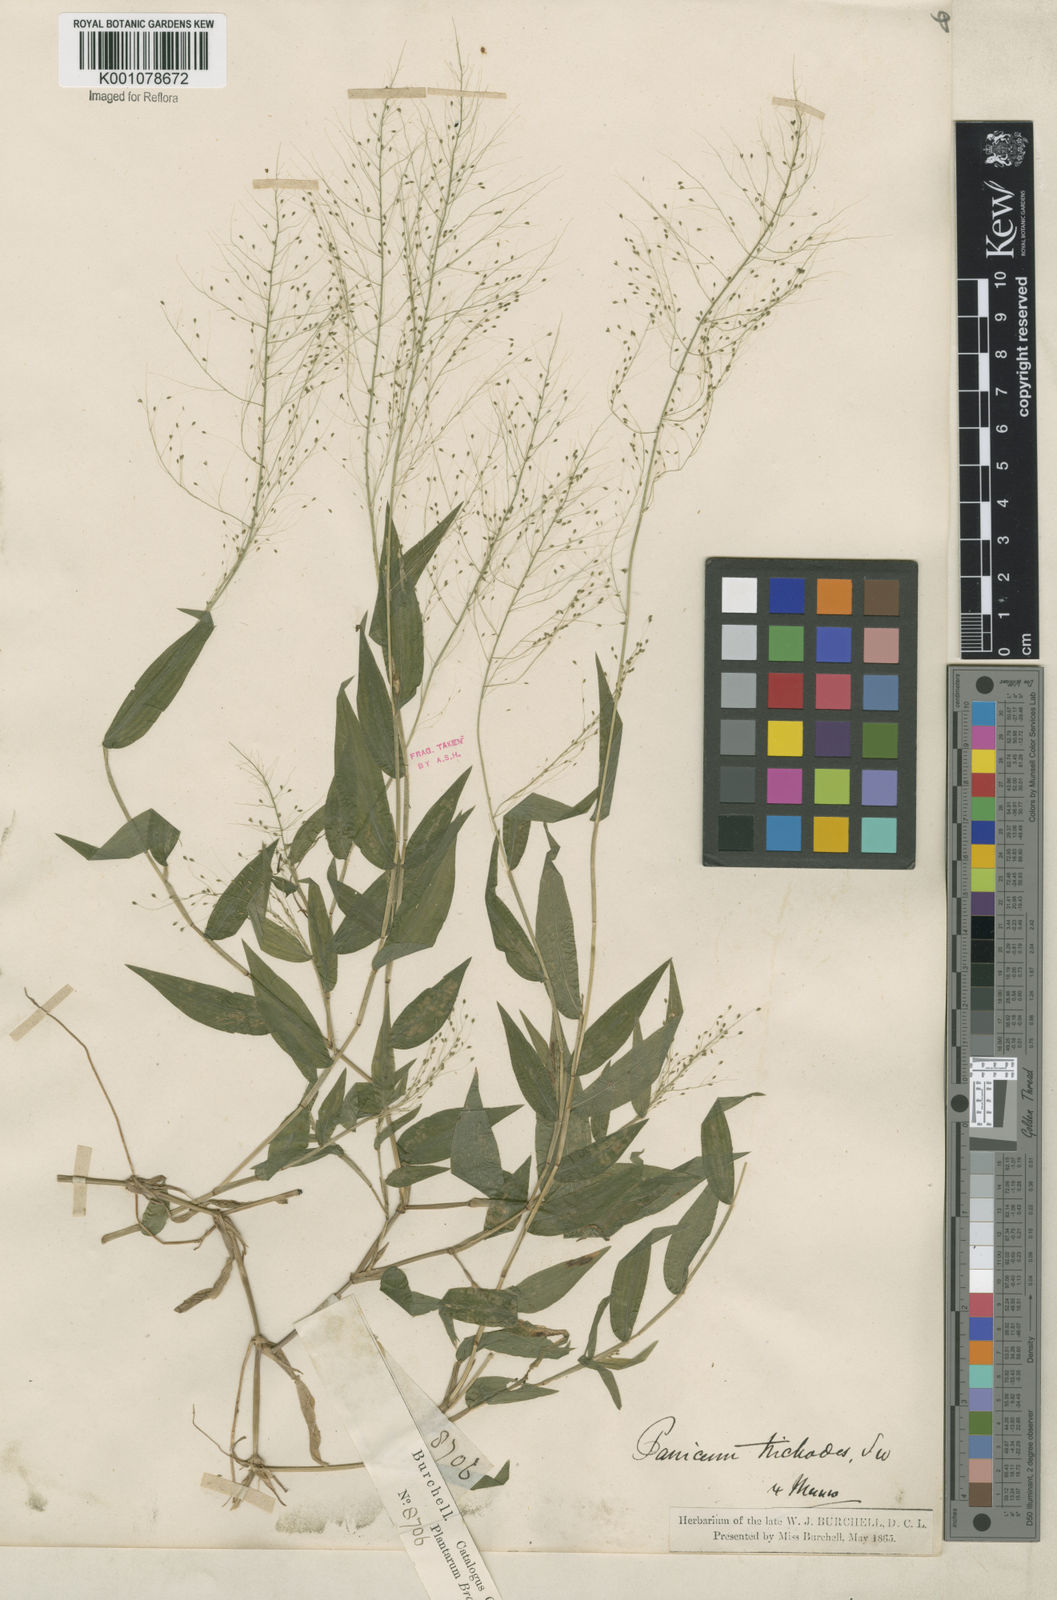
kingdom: Plantae
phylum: Tracheophyta
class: Liliopsida
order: Poales
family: Poaceae
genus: Panicum
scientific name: Panicum trichoides
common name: Tickle grass
